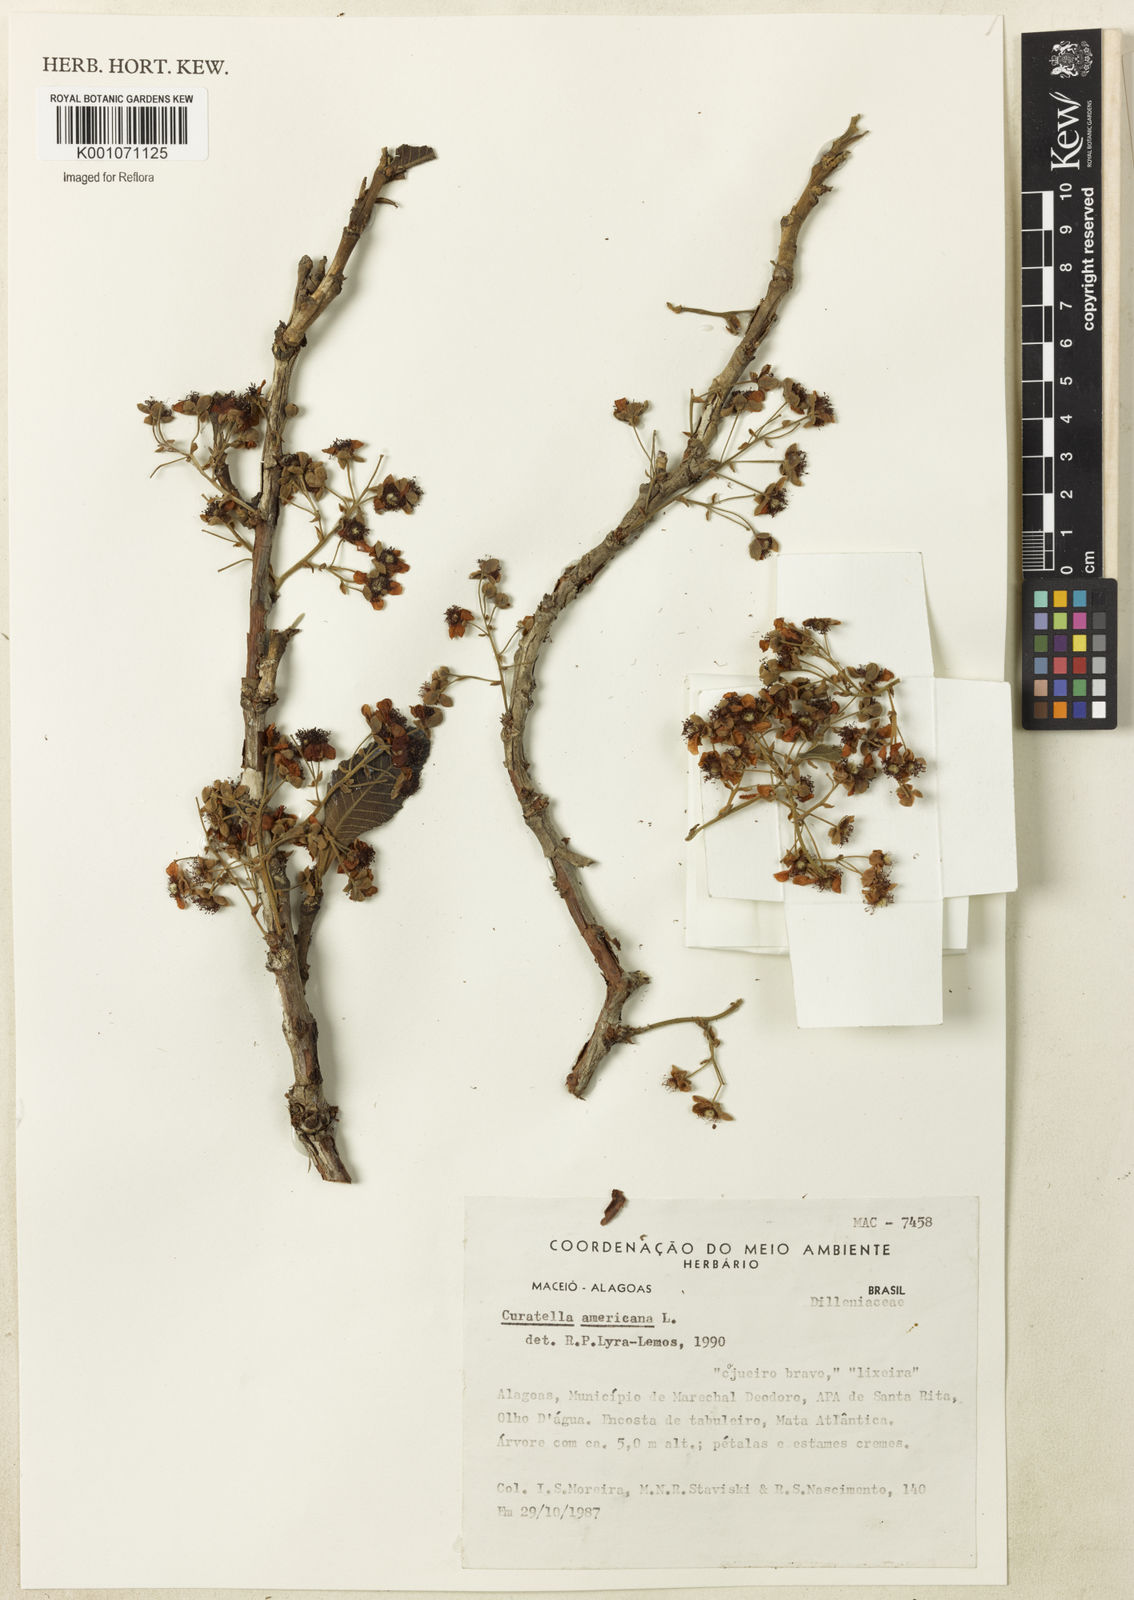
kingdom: Plantae
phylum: Tracheophyta
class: Magnoliopsida
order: Dilleniales
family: Dilleniaceae
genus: Curatella
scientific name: Curatella americana
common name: Sandpaper tree
